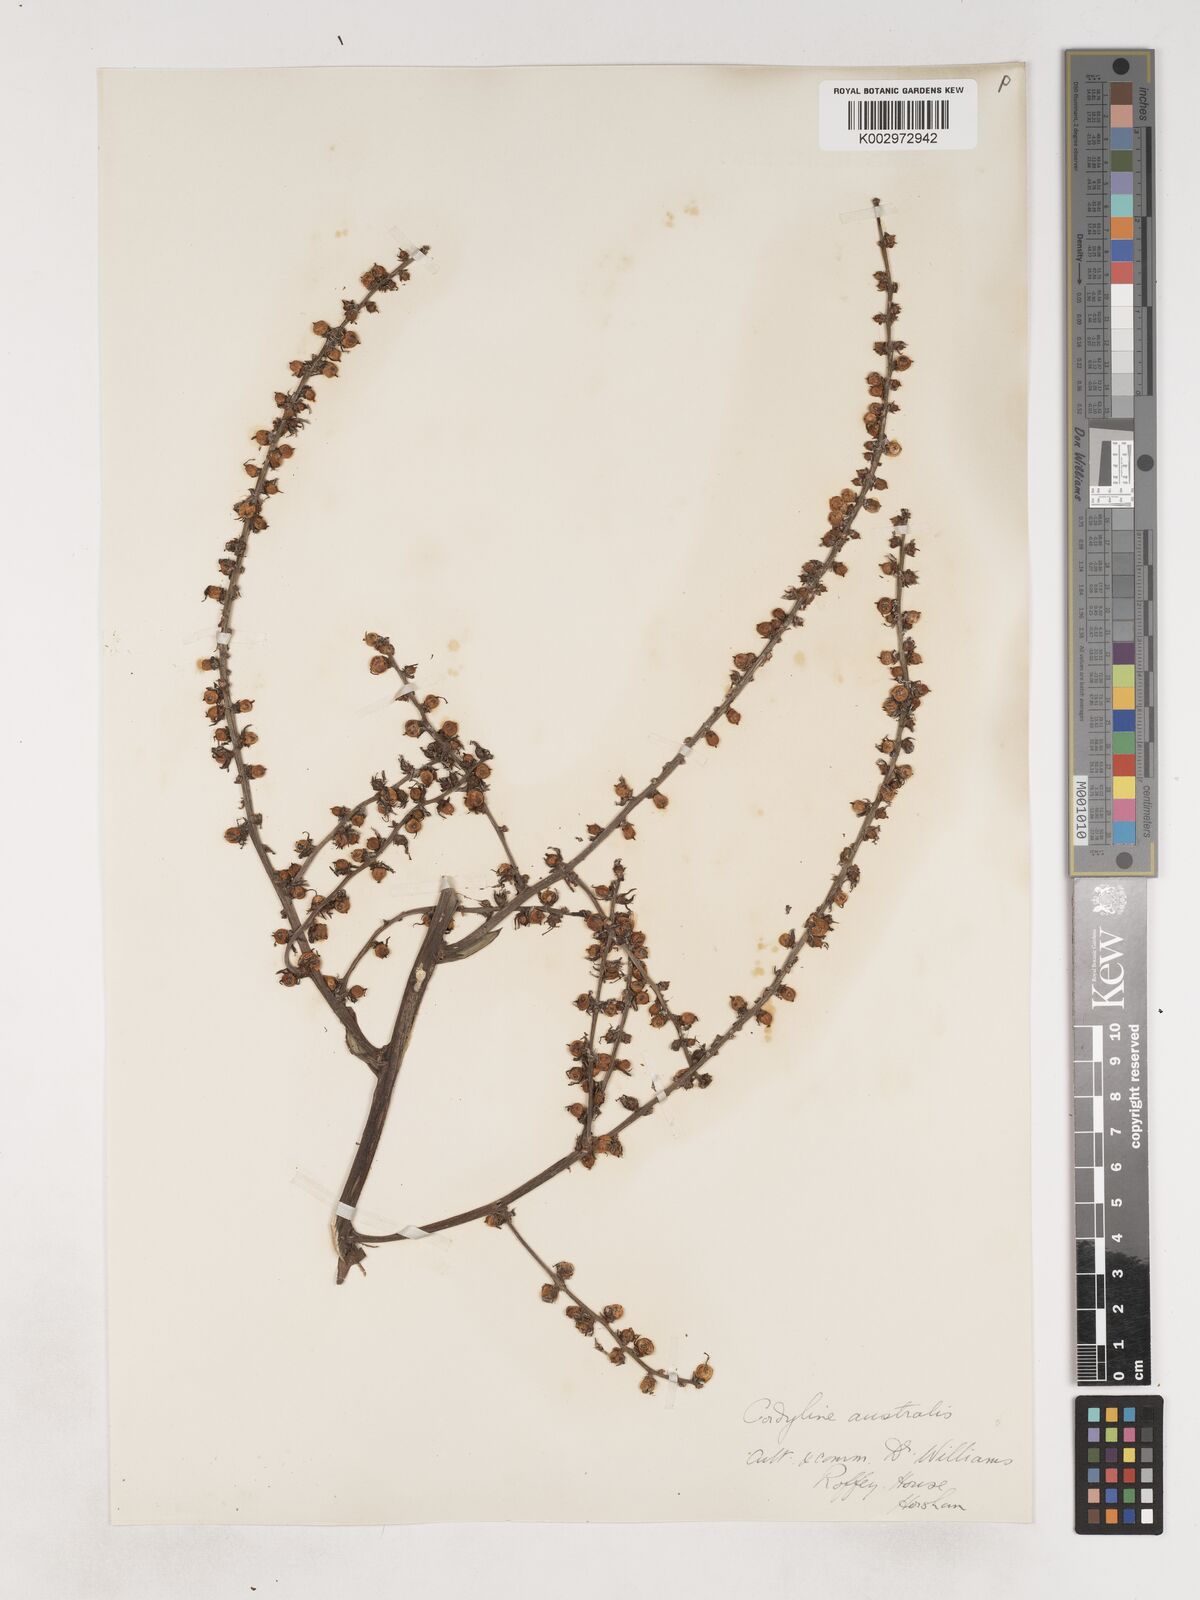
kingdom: Plantae
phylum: Tracheophyta
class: Liliopsida
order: Asparagales
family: Asparagaceae
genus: Cordyline
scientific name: Cordyline
